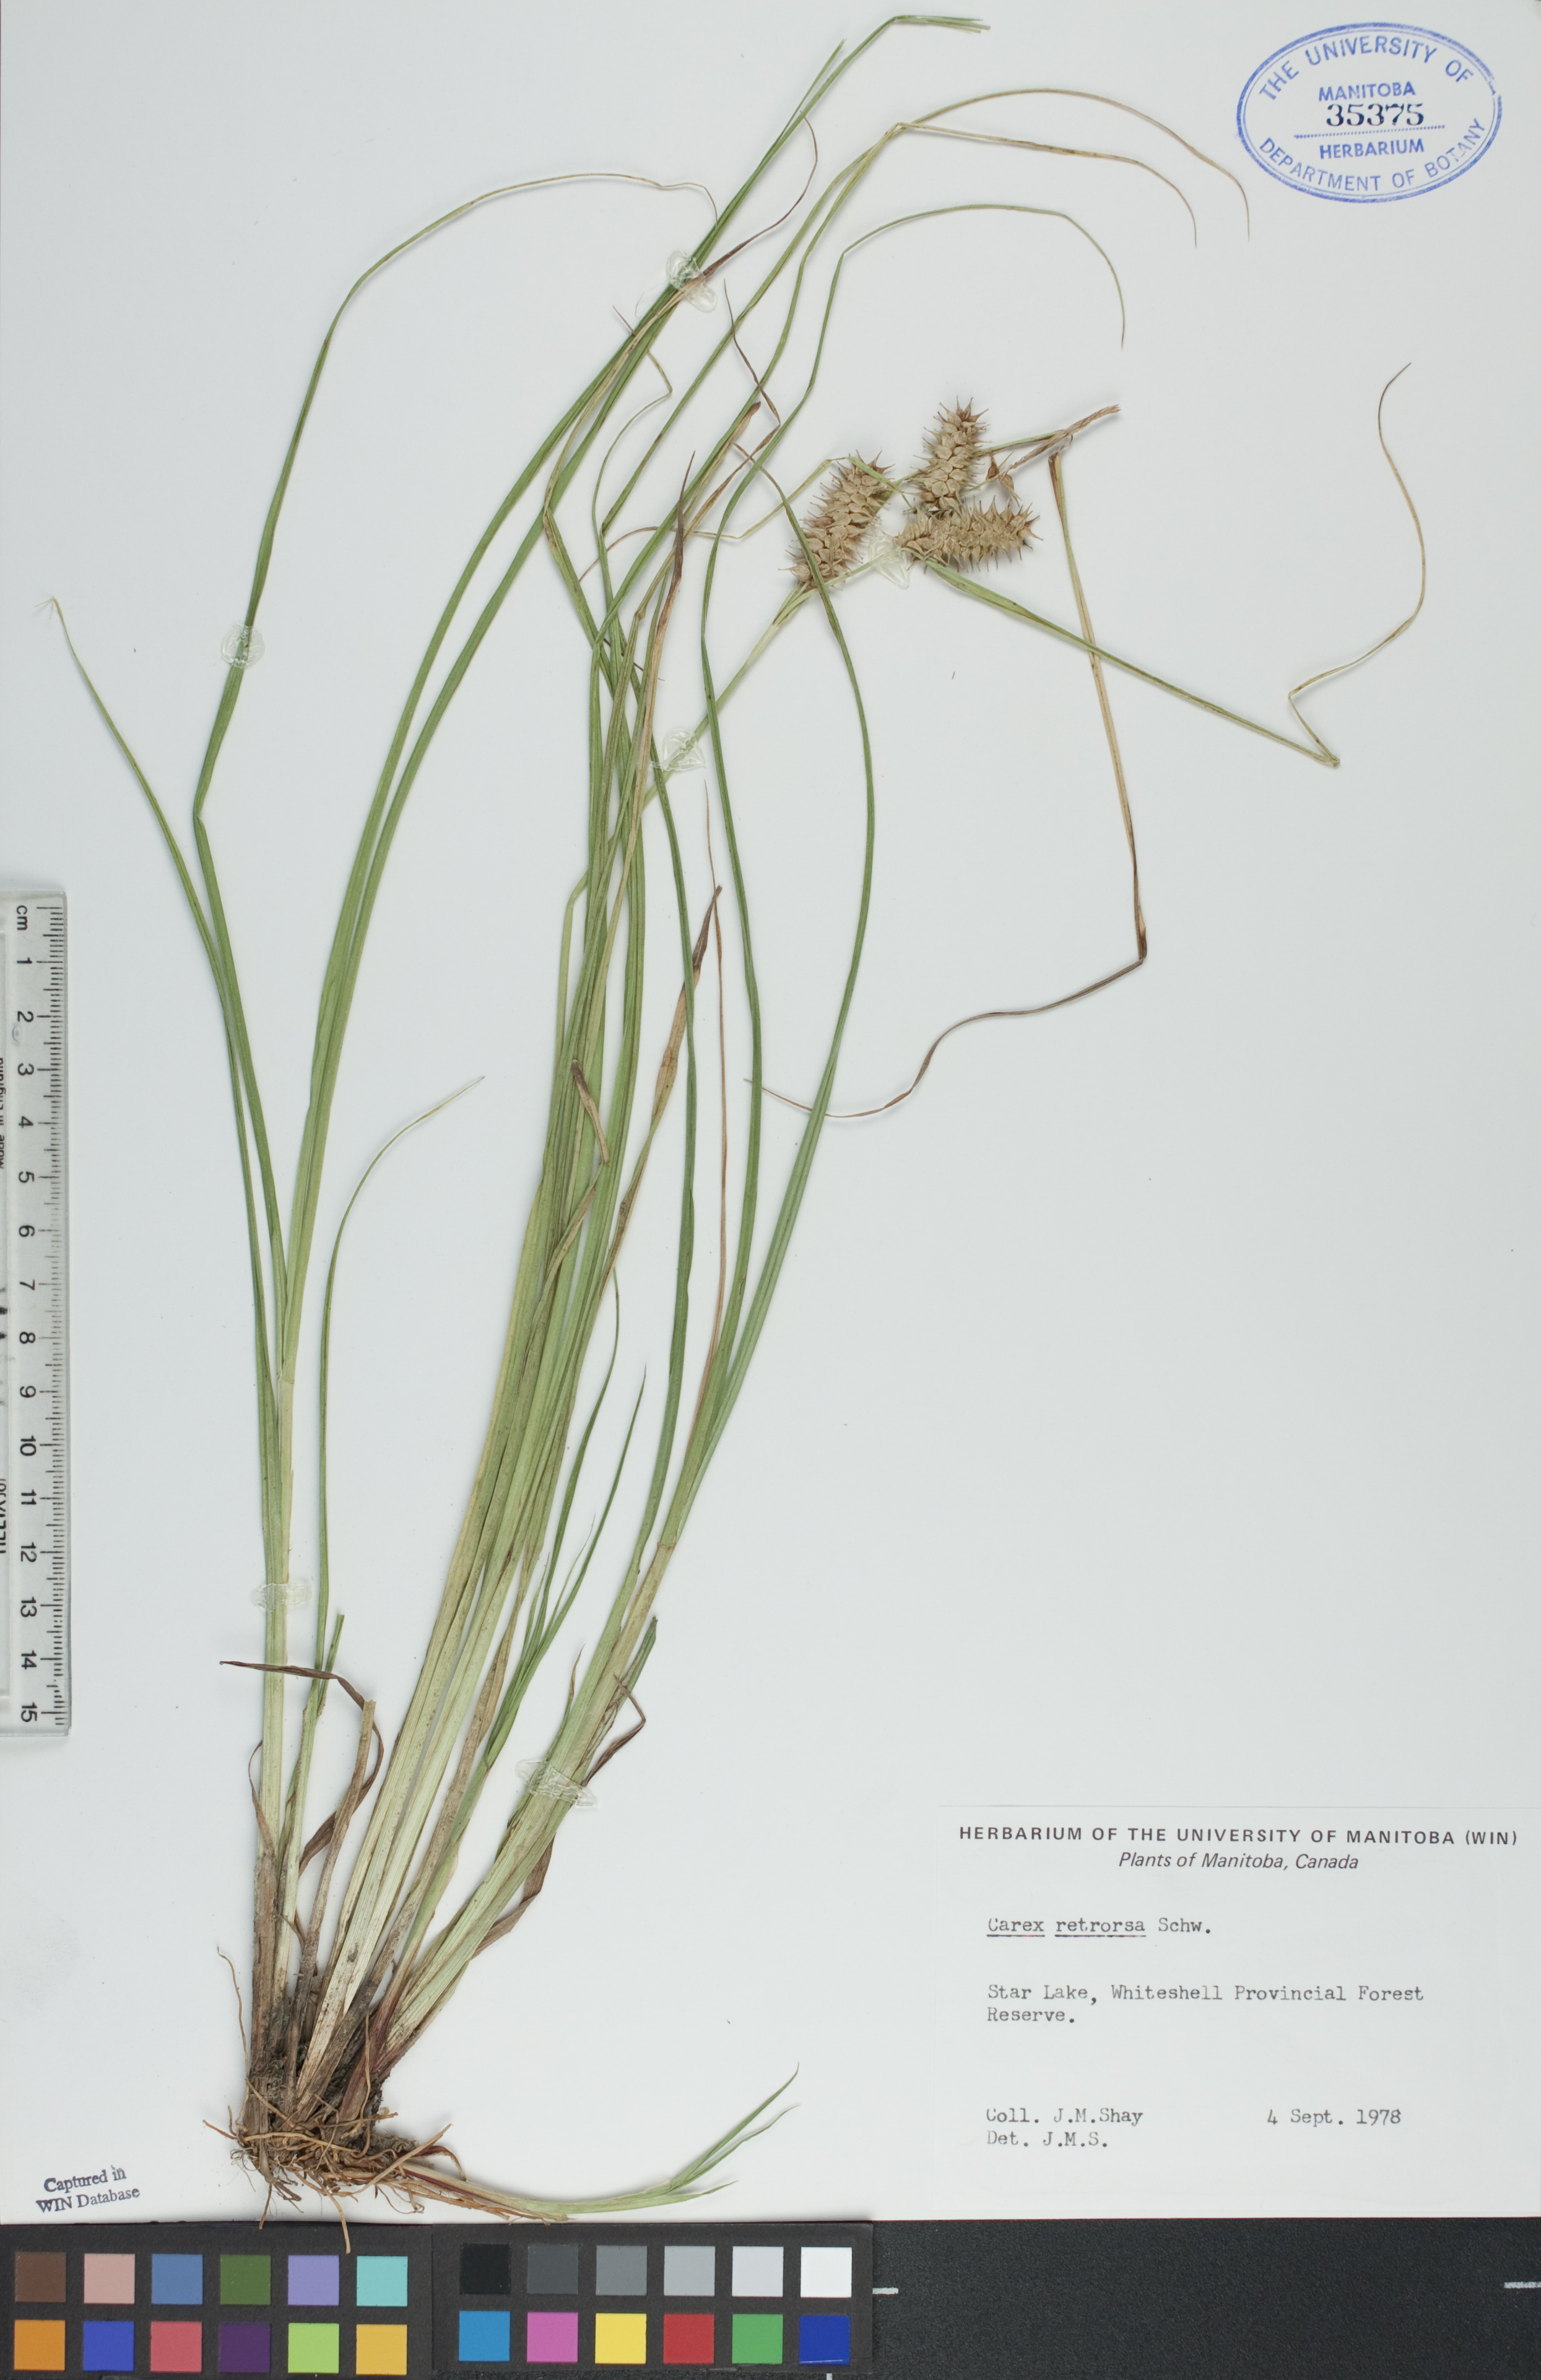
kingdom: Plantae
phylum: Tracheophyta
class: Liliopsida
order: Poales
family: Cyperaceae
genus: Carex
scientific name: Carex retrorsa
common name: Knot-sheath sedge
